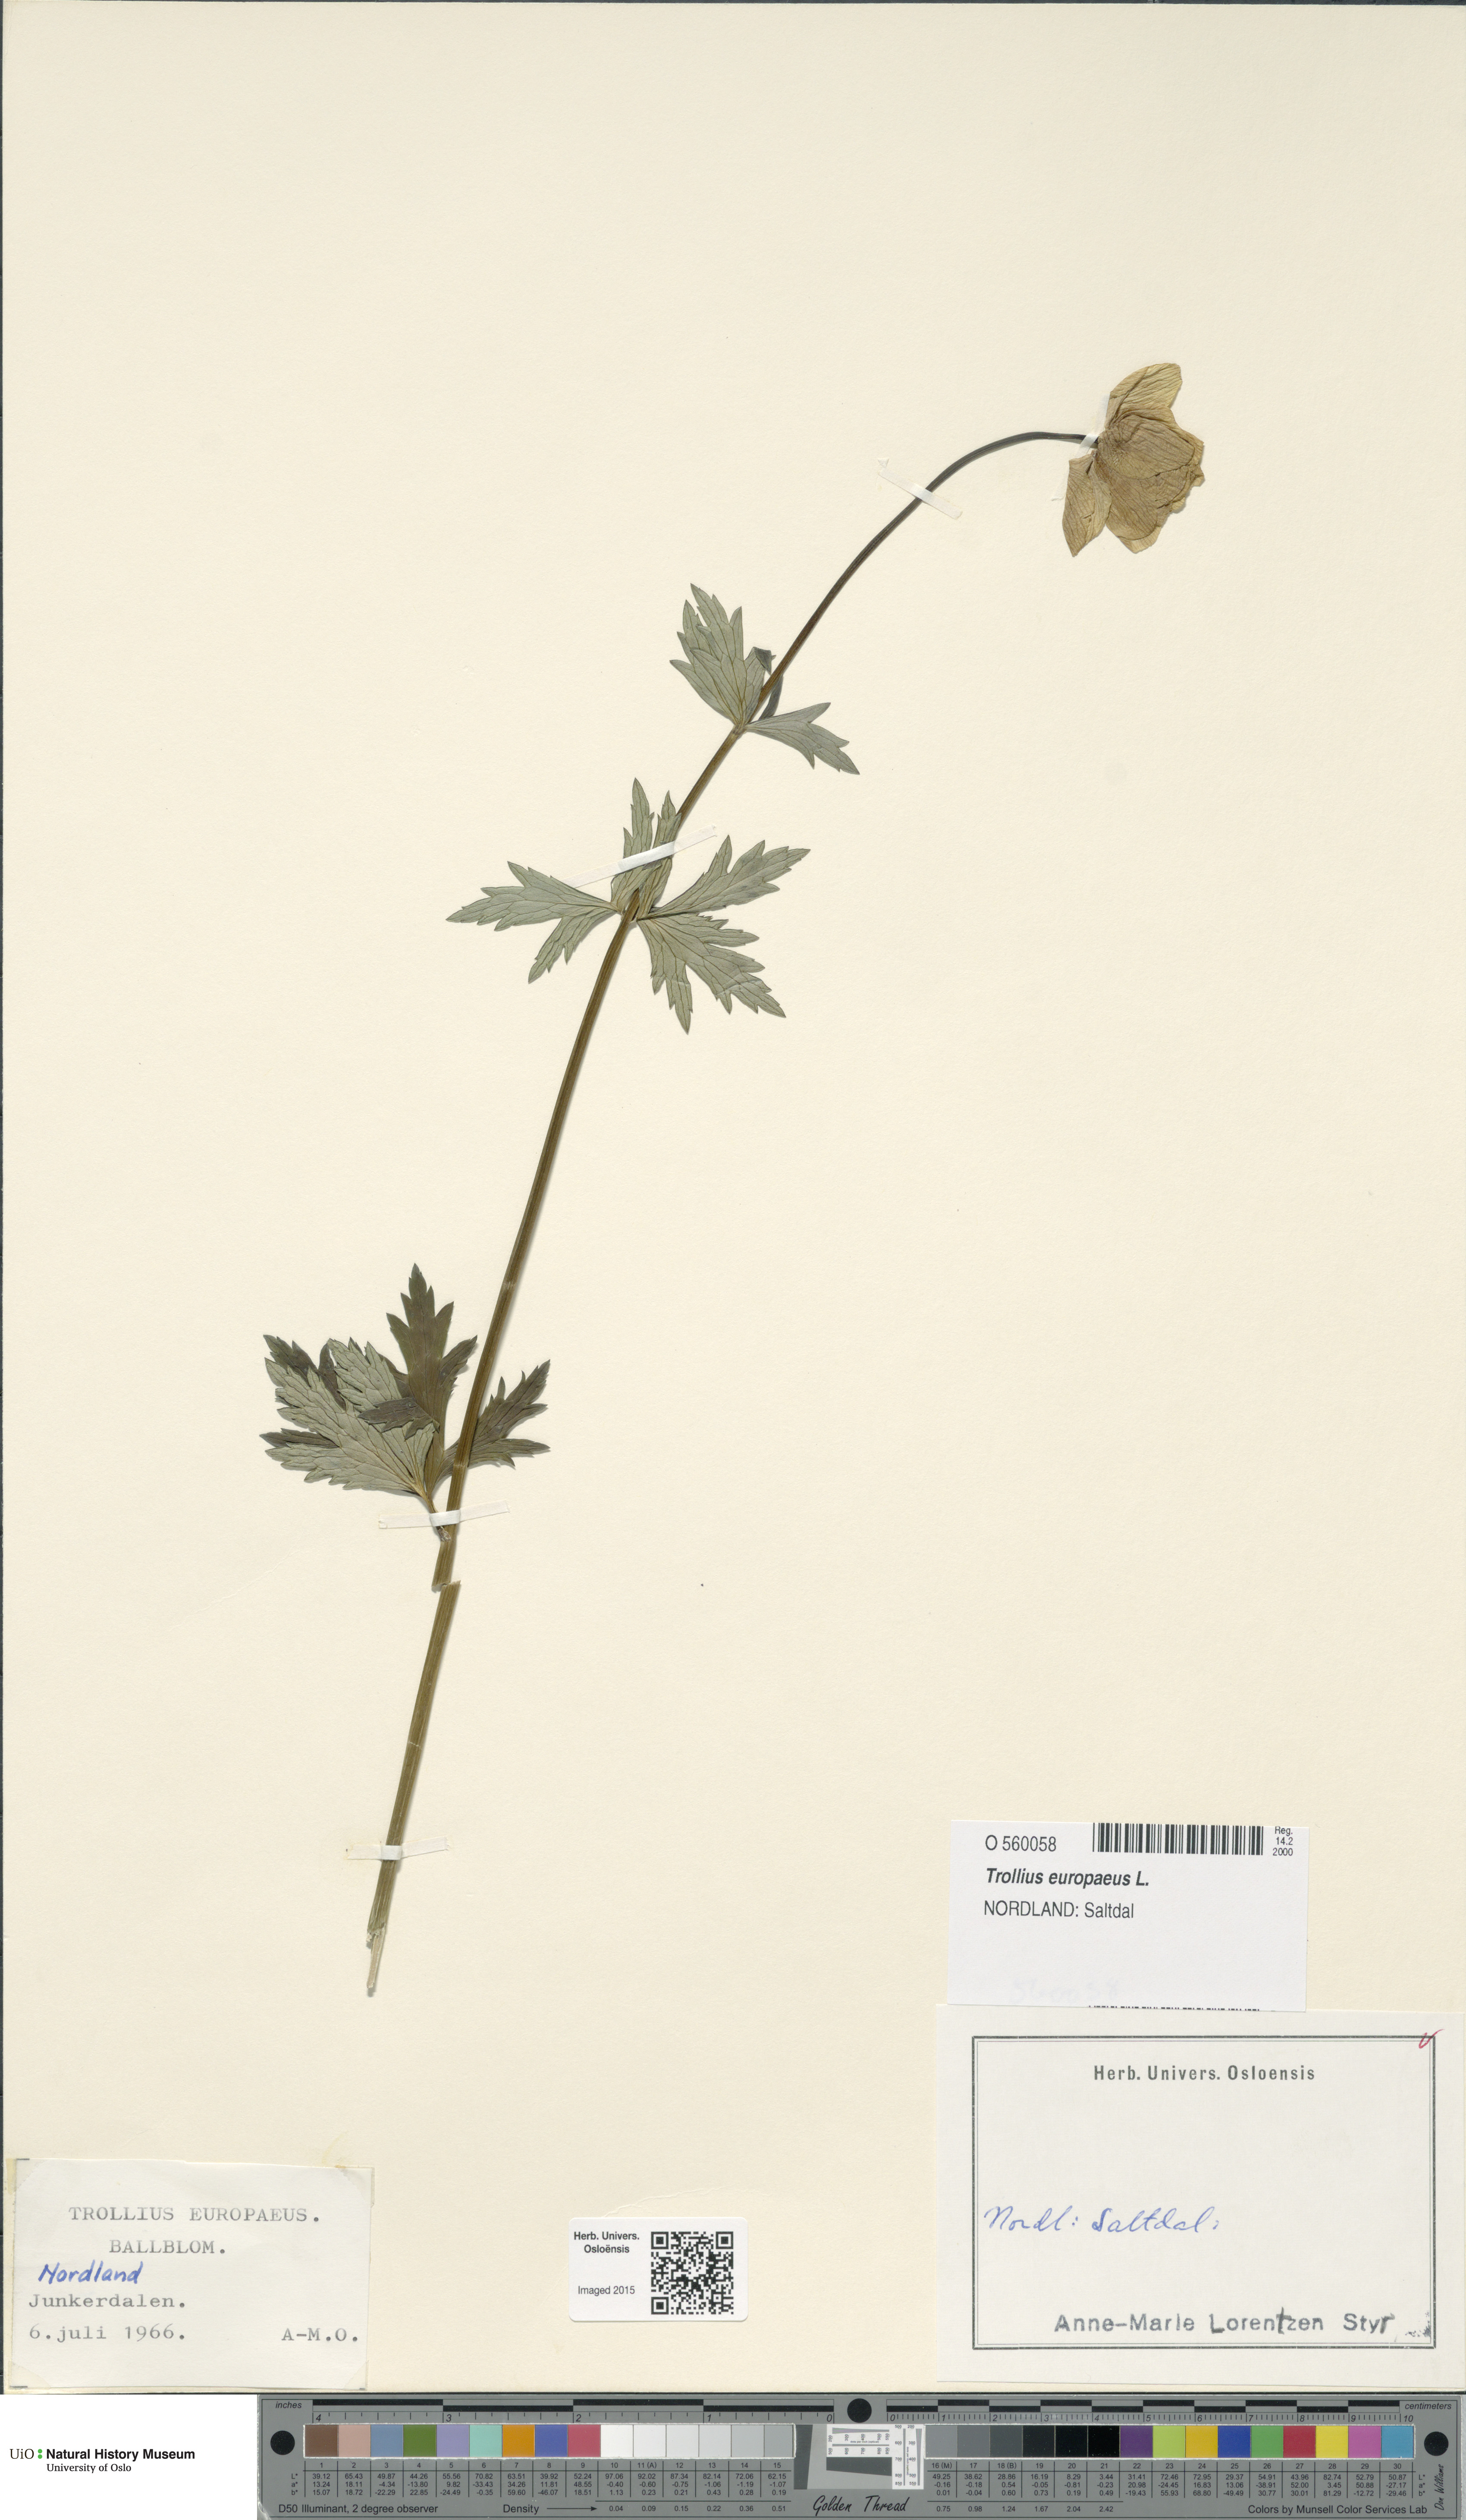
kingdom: Plantae
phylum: Tracheophyta
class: Magnoliopsida
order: Ranunculales
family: Ranunculaceae
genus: Trollius
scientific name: Trollius europaeus
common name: European globeflower
